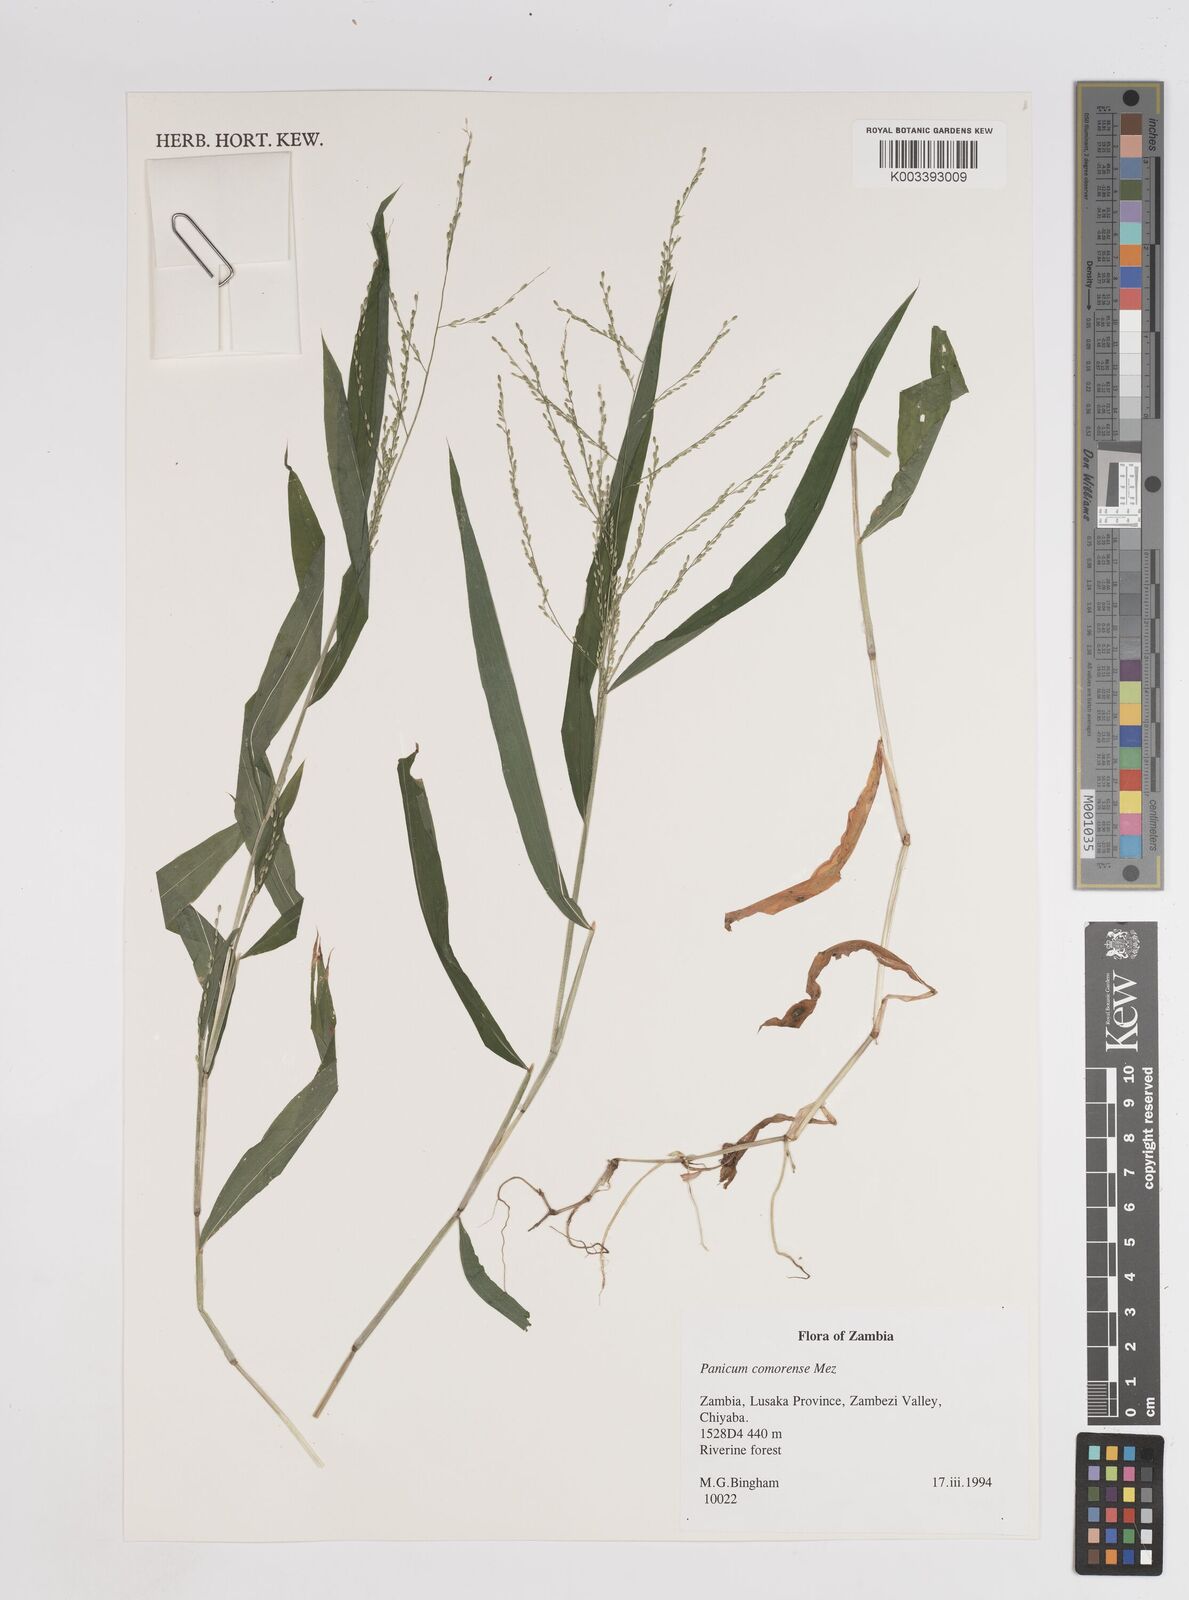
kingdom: Plantae
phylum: Tracheophyta
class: Liliopsida
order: Poales
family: Poaceae
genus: Panicum
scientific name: Panicum comorense
